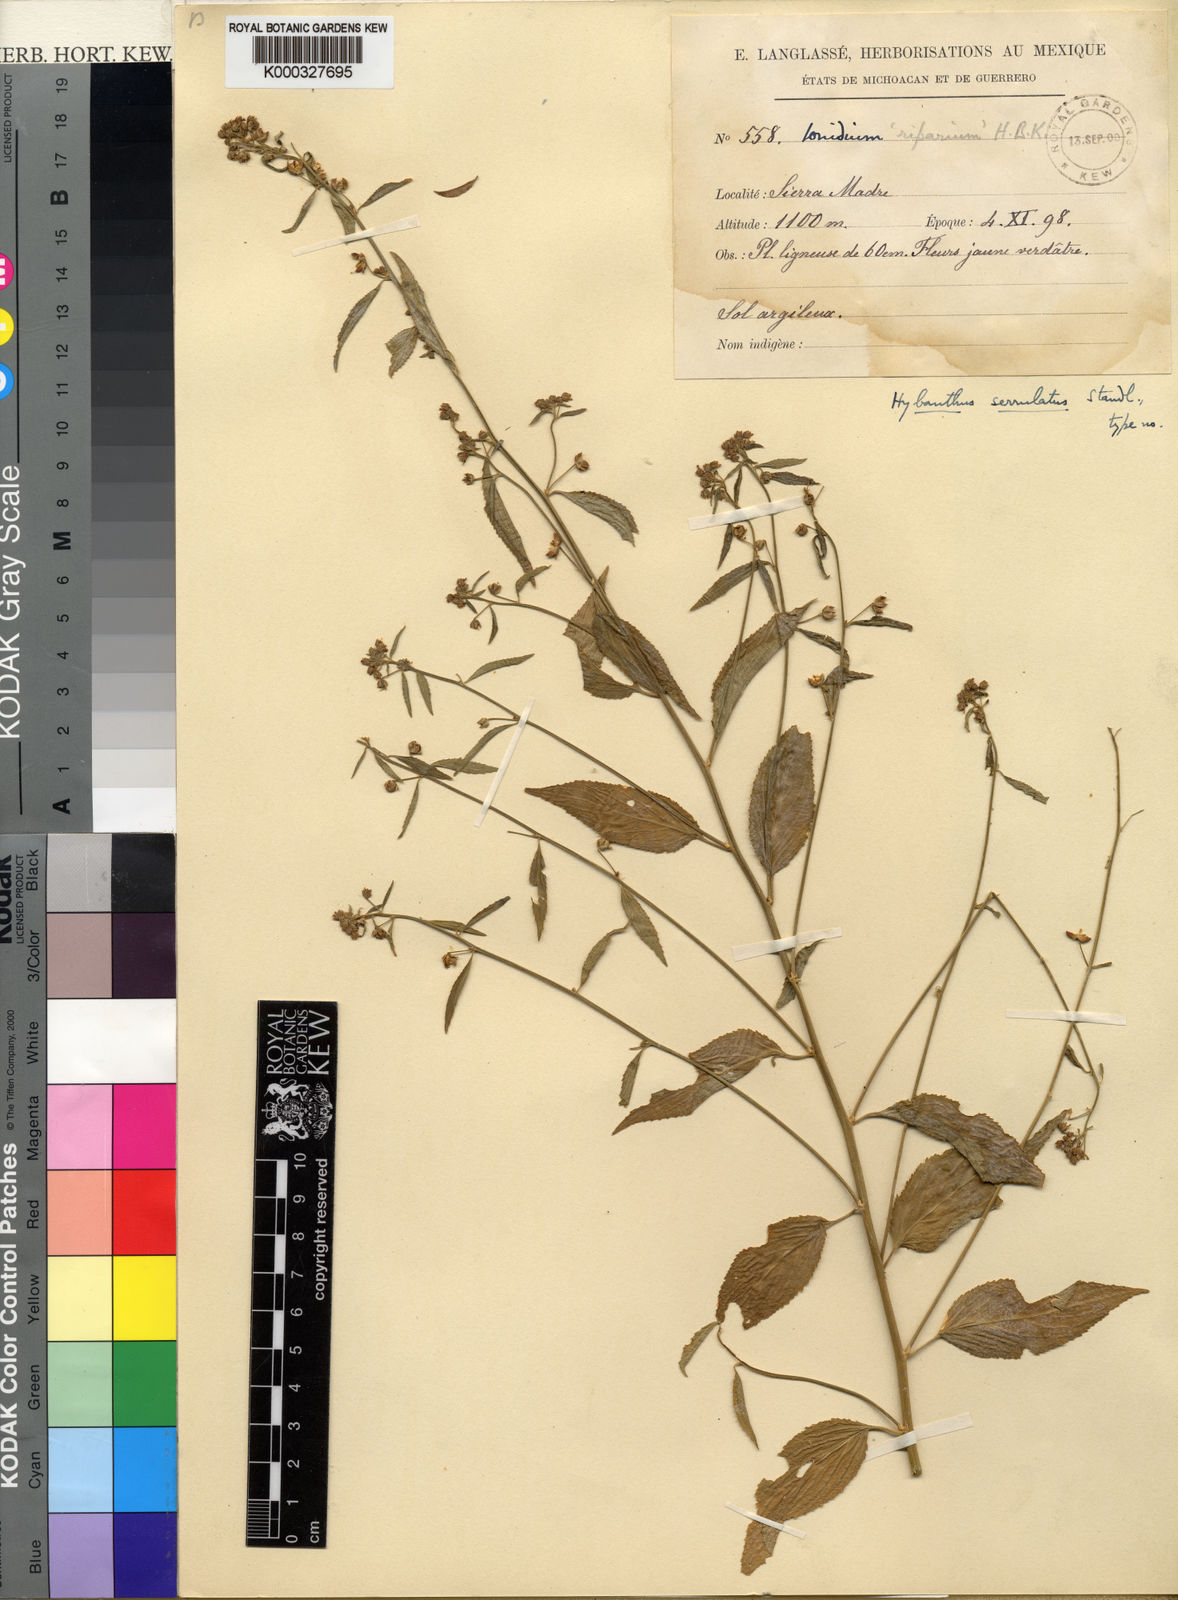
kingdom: Plantae
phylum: Tracheophyta
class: Magnoliopsida
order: Malpighiales
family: Violaceae
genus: Hybanthus
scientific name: Hybanthus serrulatus
